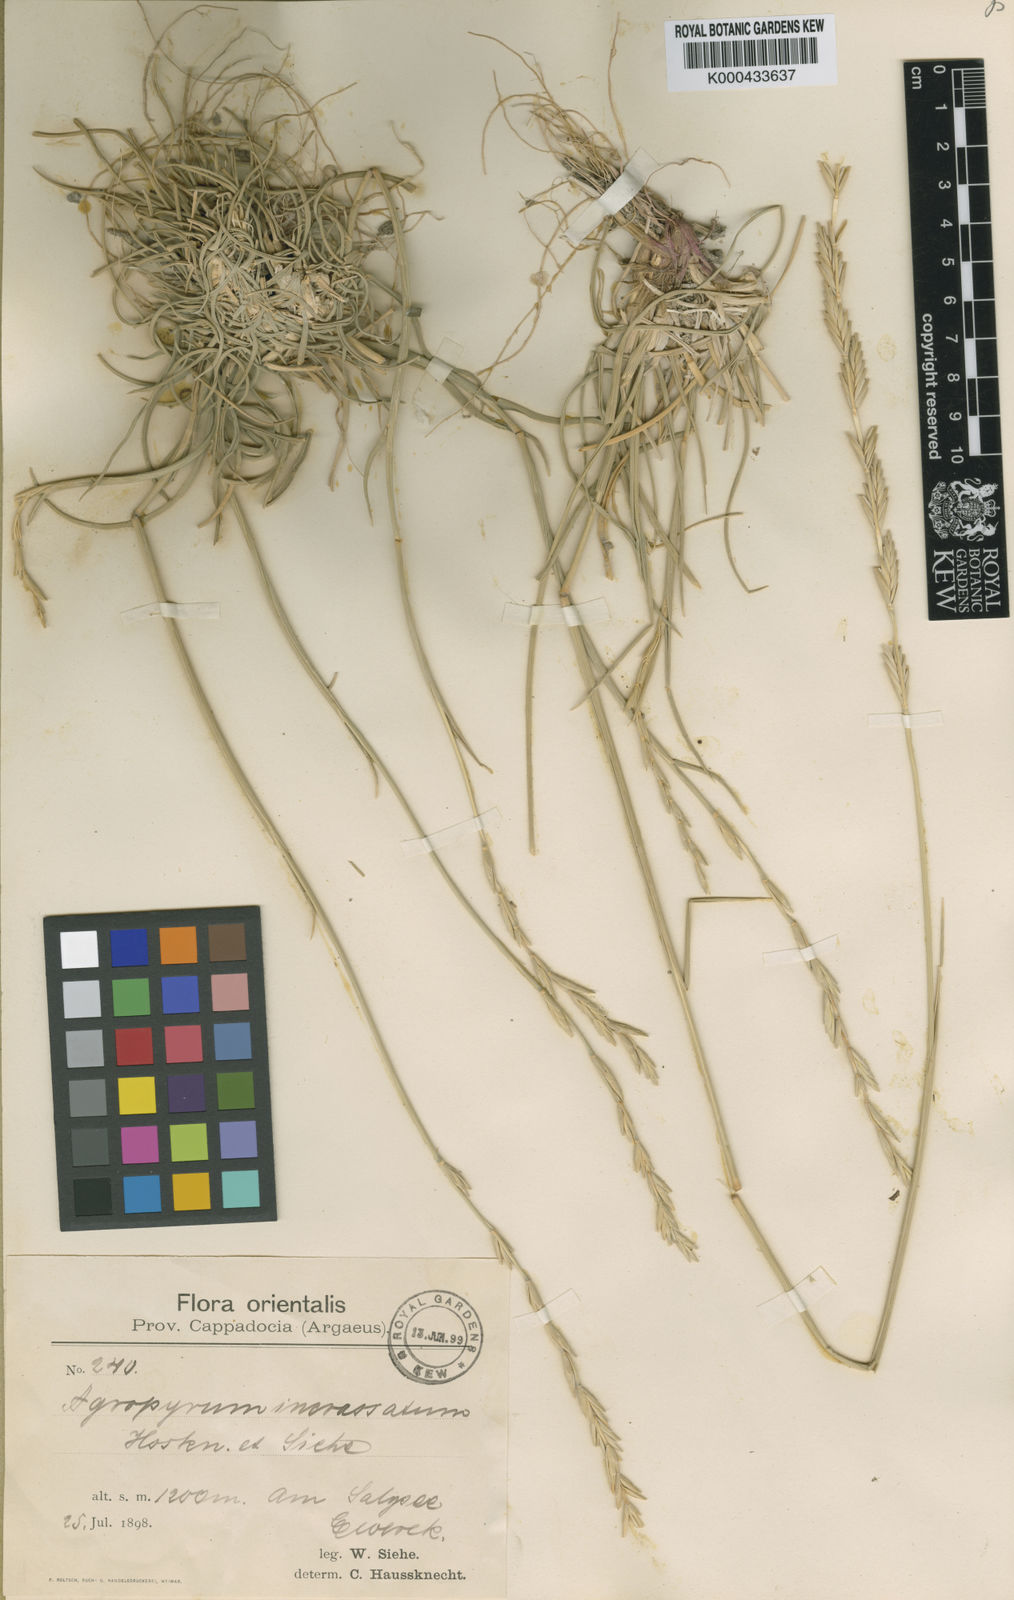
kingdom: Plantae
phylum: Tracheophyta
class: Liliopsida
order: Poales
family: Poaceae
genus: Thinopyrum
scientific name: Thinopyrum elongatum
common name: Tall wheatgrass
